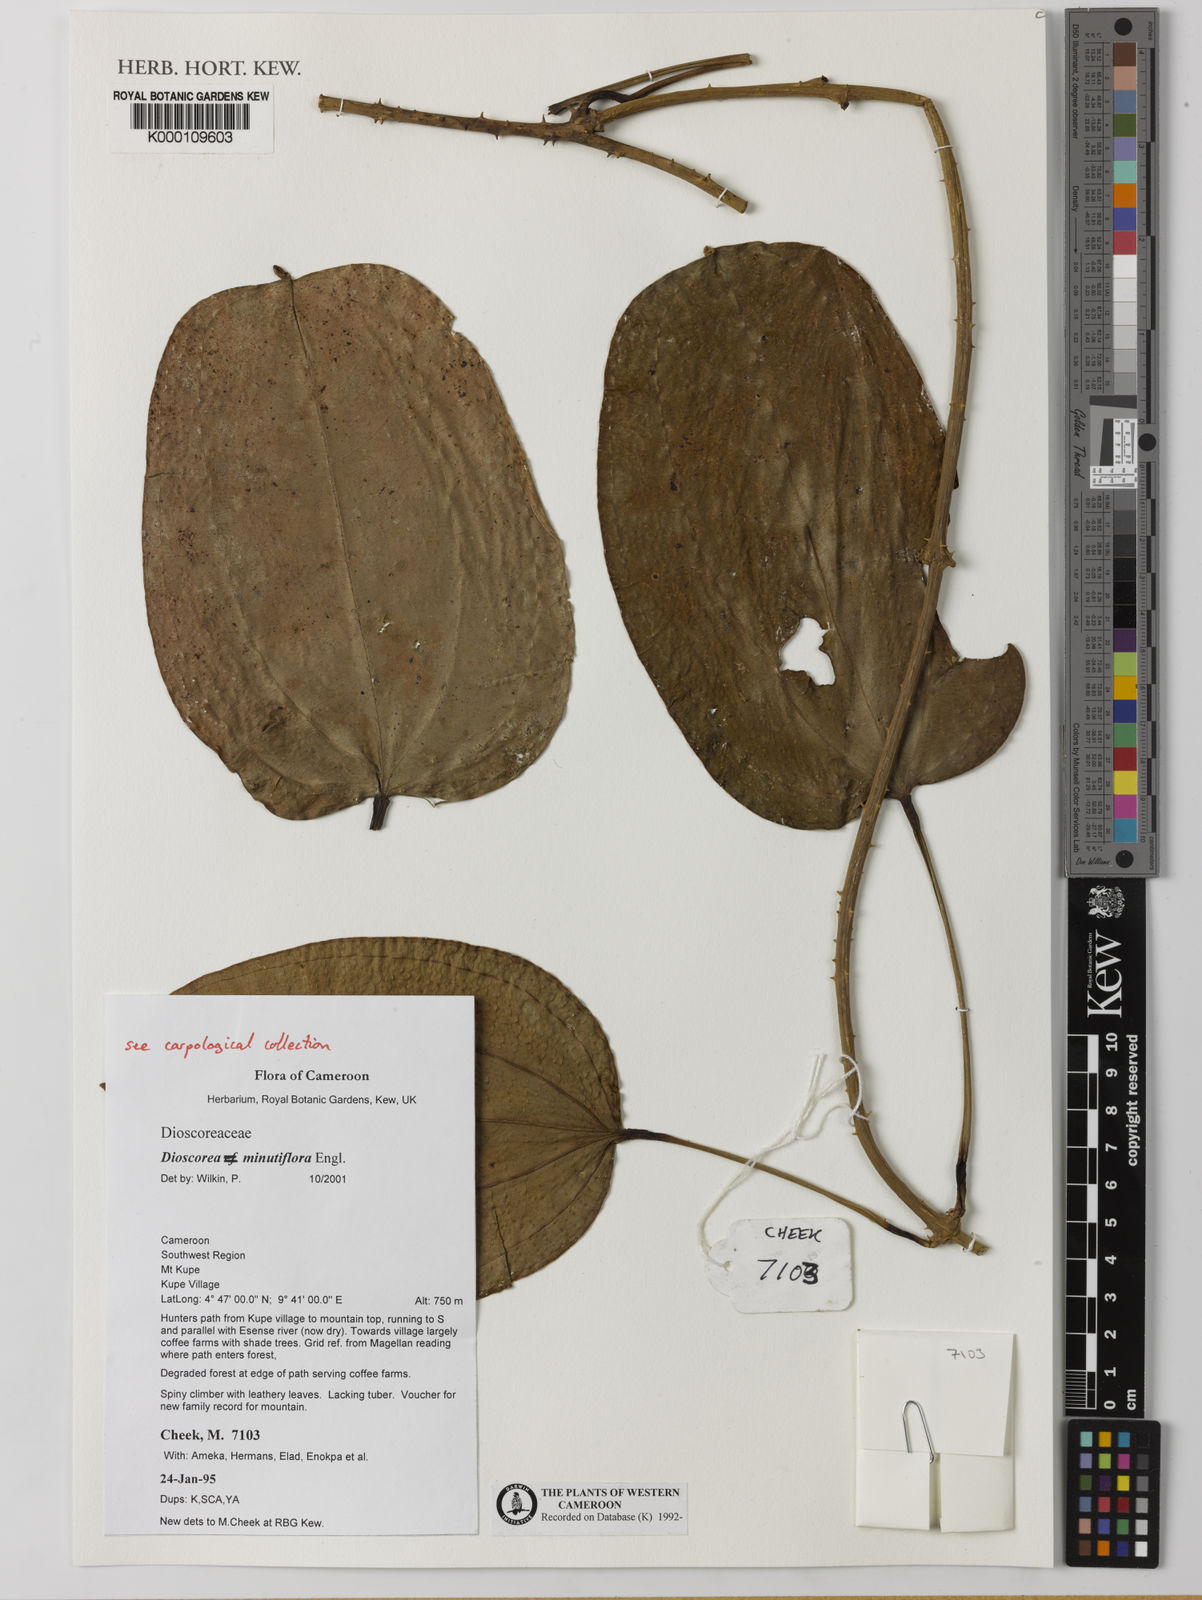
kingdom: Plantae
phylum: Tracheophyta
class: Liliopsida
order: Dioscoreales
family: Dioscoreaceae
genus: Dioscorea
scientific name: Dioscorea minutiflora
